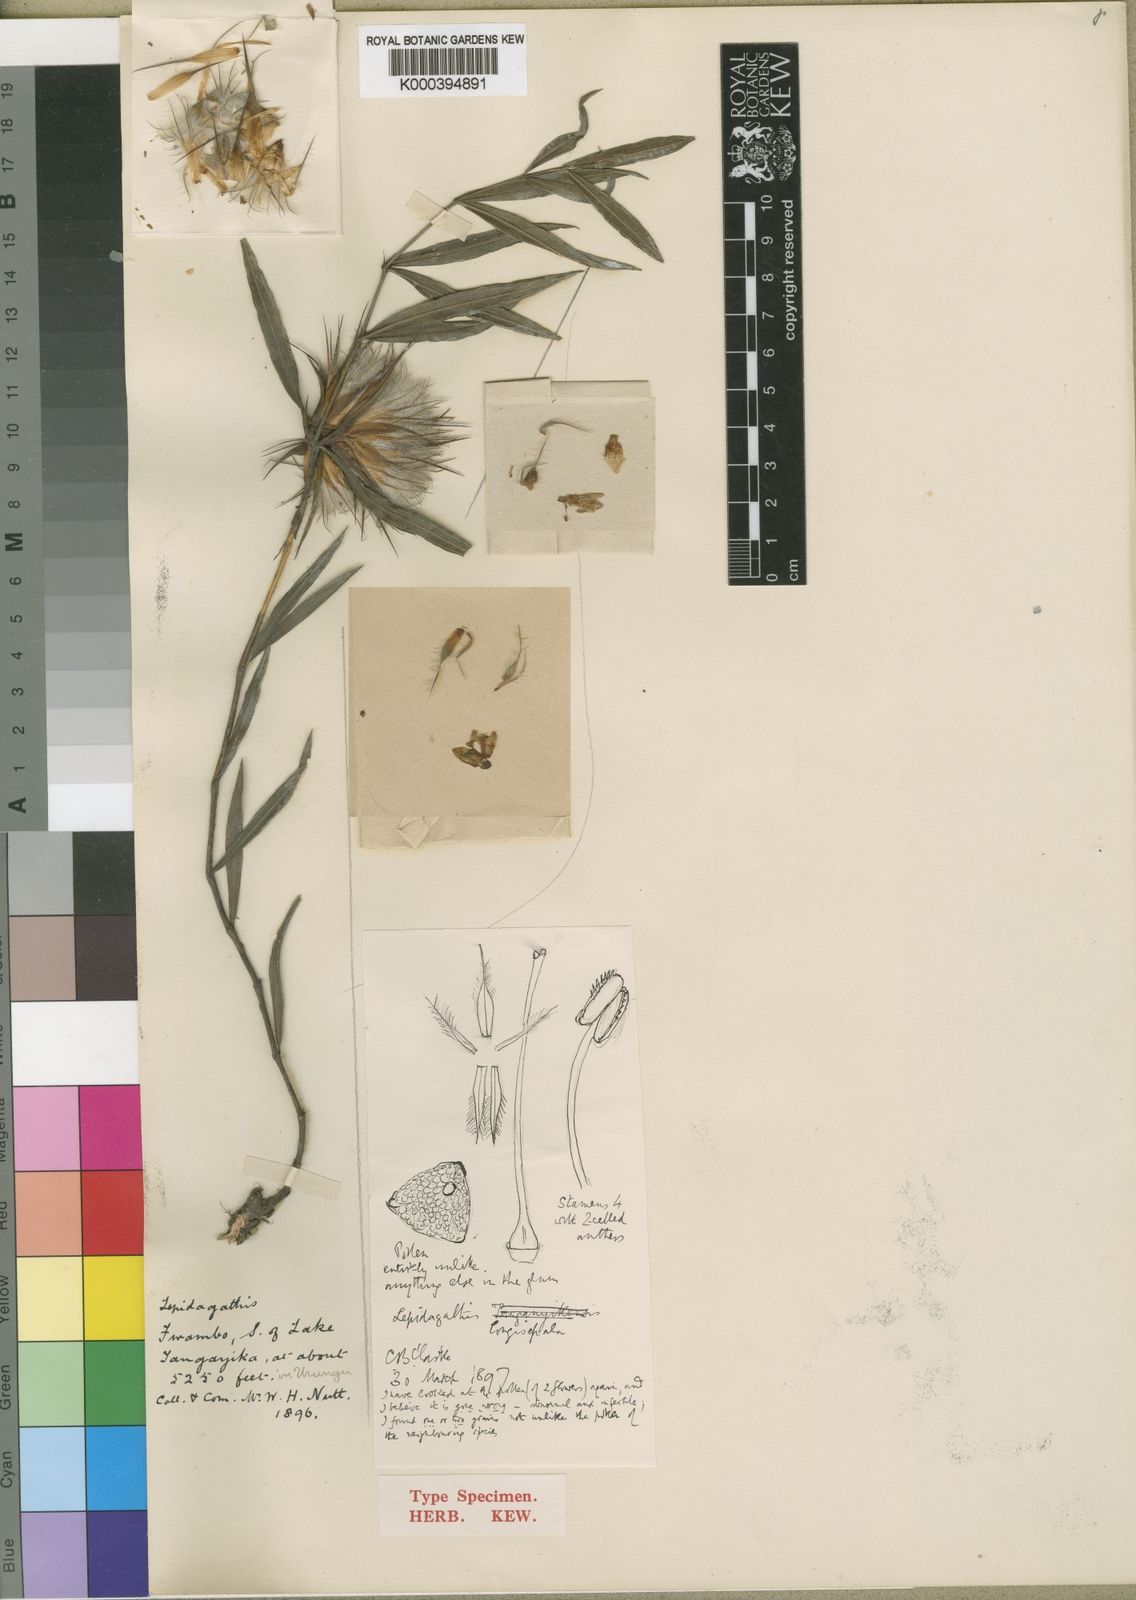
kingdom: Plantae
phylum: Tracheophyta
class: Magnoliopsida
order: Lamiales
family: Acanthaceae
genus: Lepidagathis
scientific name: Lepidagathis longisepala
